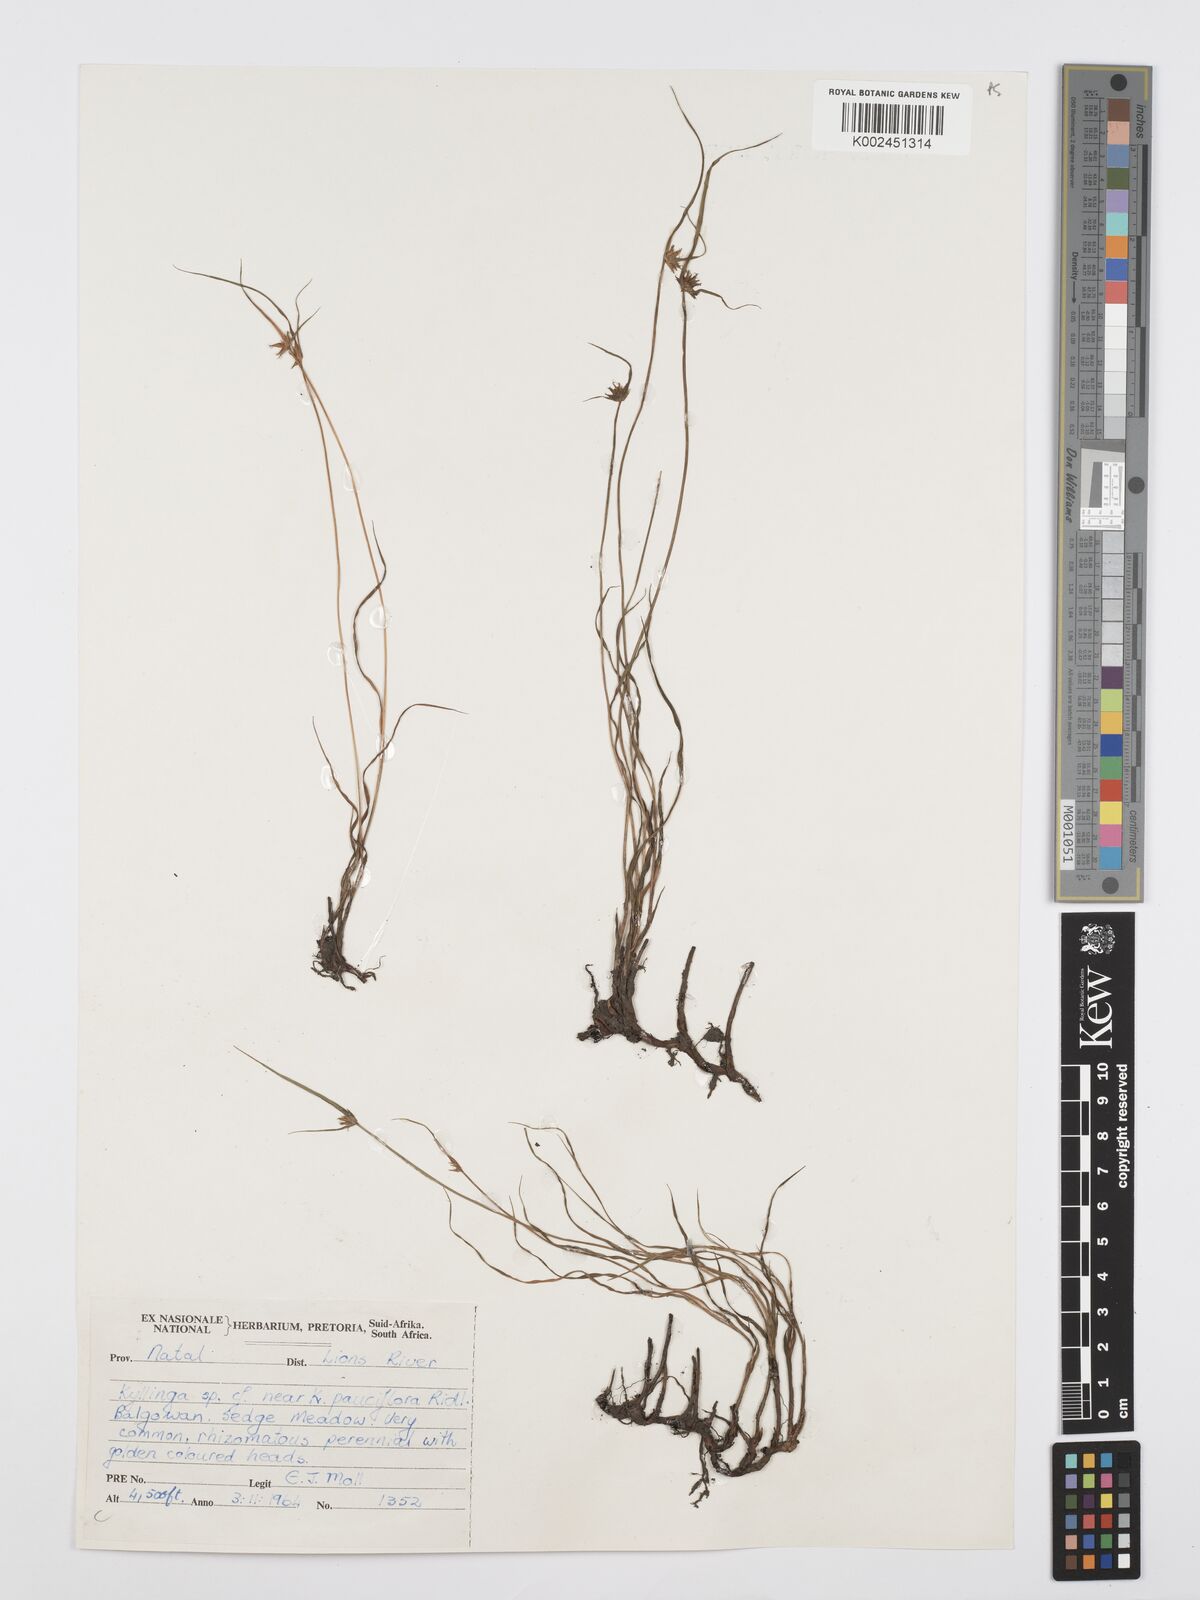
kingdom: Plantae
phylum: Tracheophyta
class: Liliopsida
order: Poales
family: Cyperaceae
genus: Cyperus
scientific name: Cyperus
